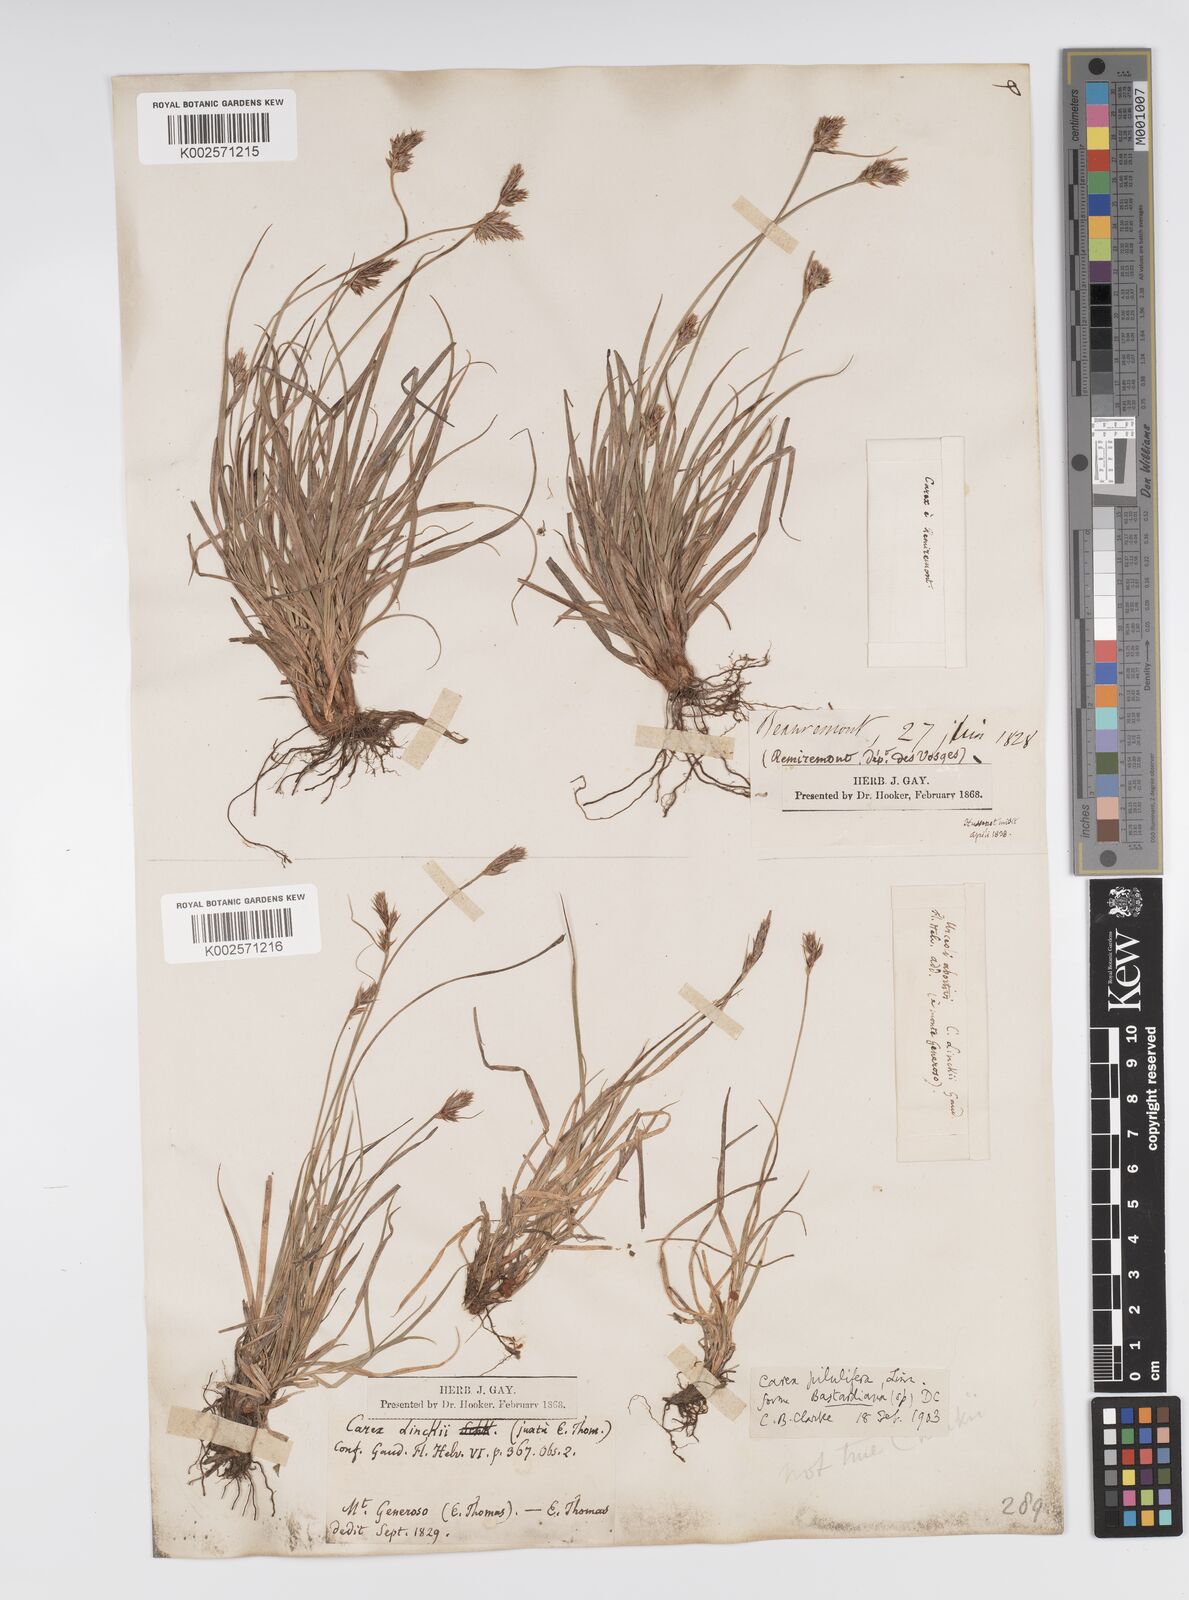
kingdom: Plantae
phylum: Tracheophyta
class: Liliopsida
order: Poales
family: Cyperaceae
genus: Carex
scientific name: Carex pilulifera
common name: Pill sedge
